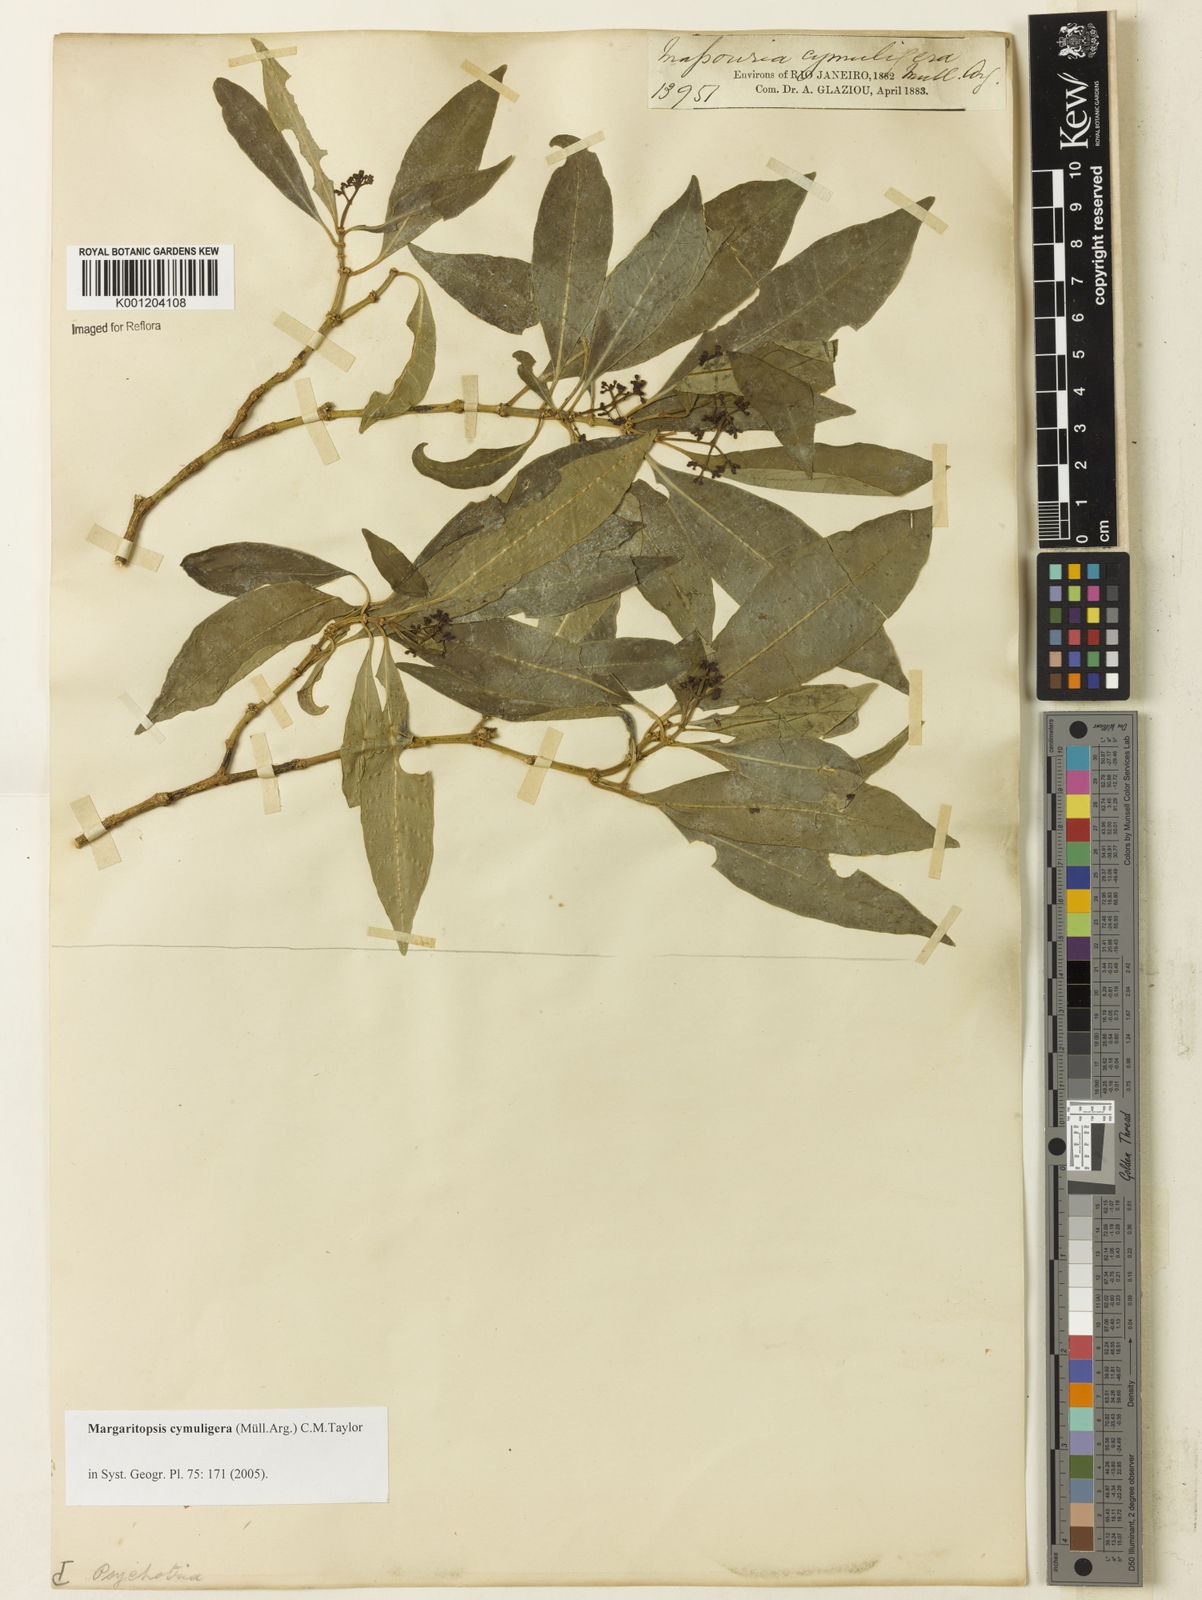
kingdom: Plantae
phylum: Tracheophyta
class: Magnoliopsida
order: Gentianales
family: Rubiaceae
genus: Eumachia
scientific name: Eumachia
